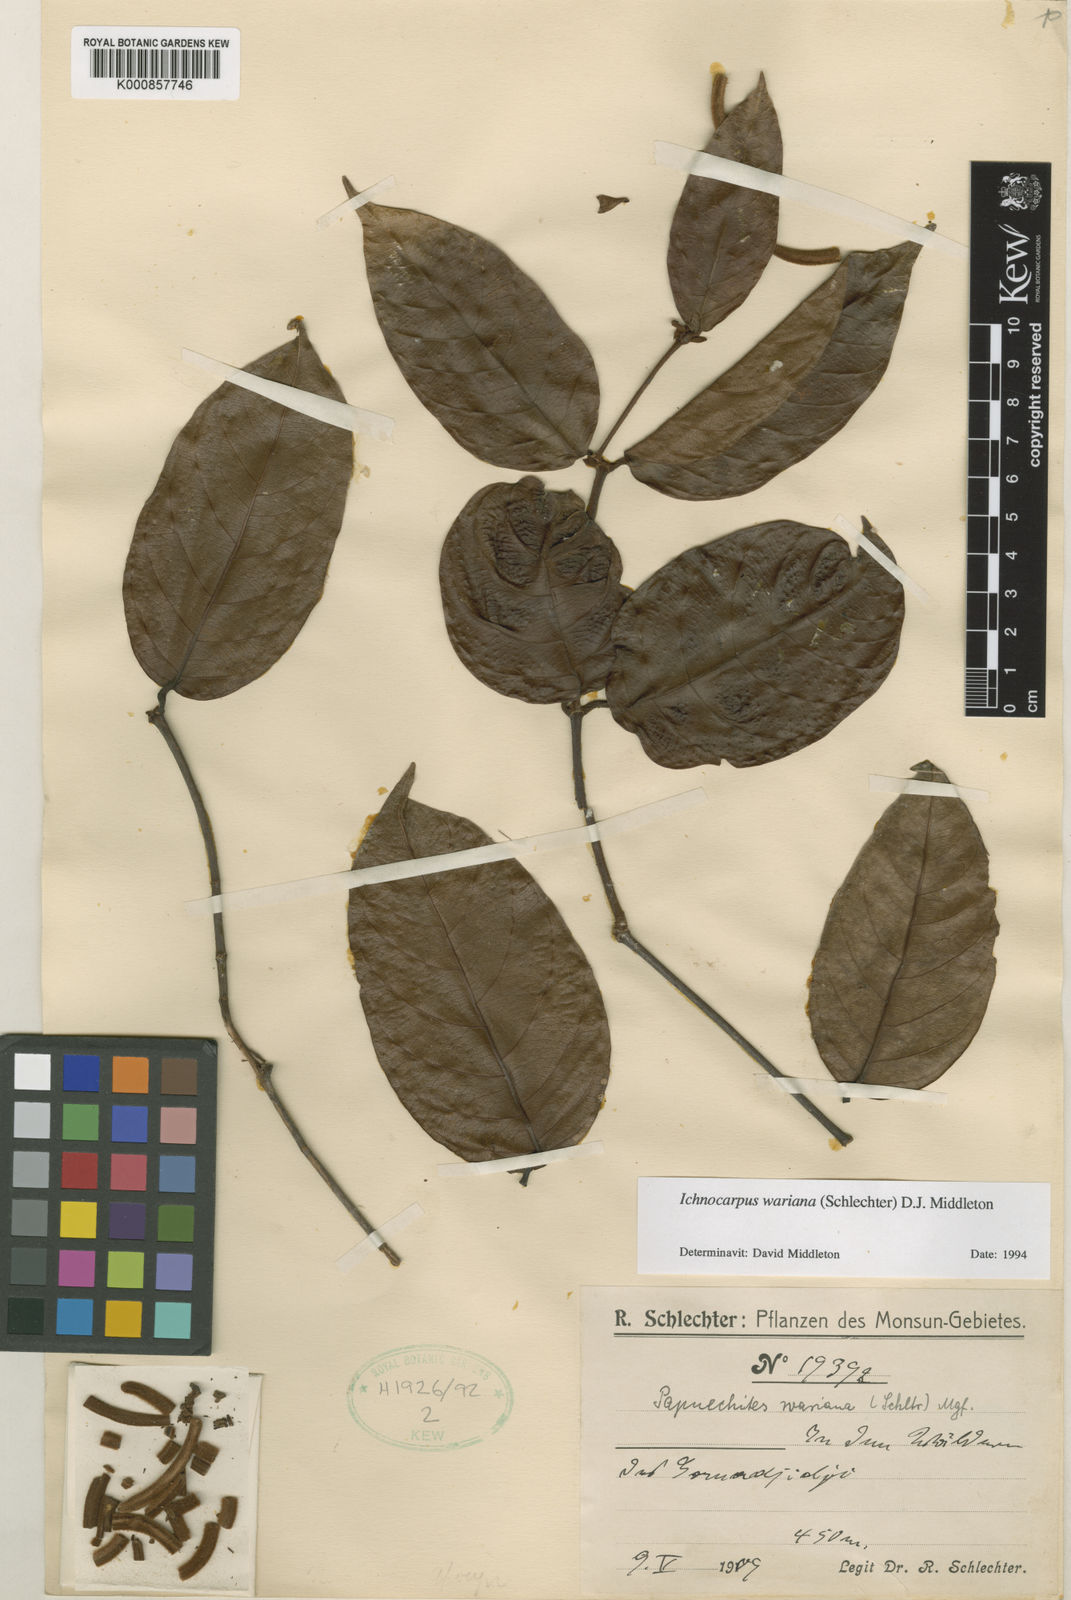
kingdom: Plantae
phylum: Tracheophyta
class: Magnoliopsida
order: Gentianales
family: Apocynaceae
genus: Micrechites
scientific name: Micrechites warianus
